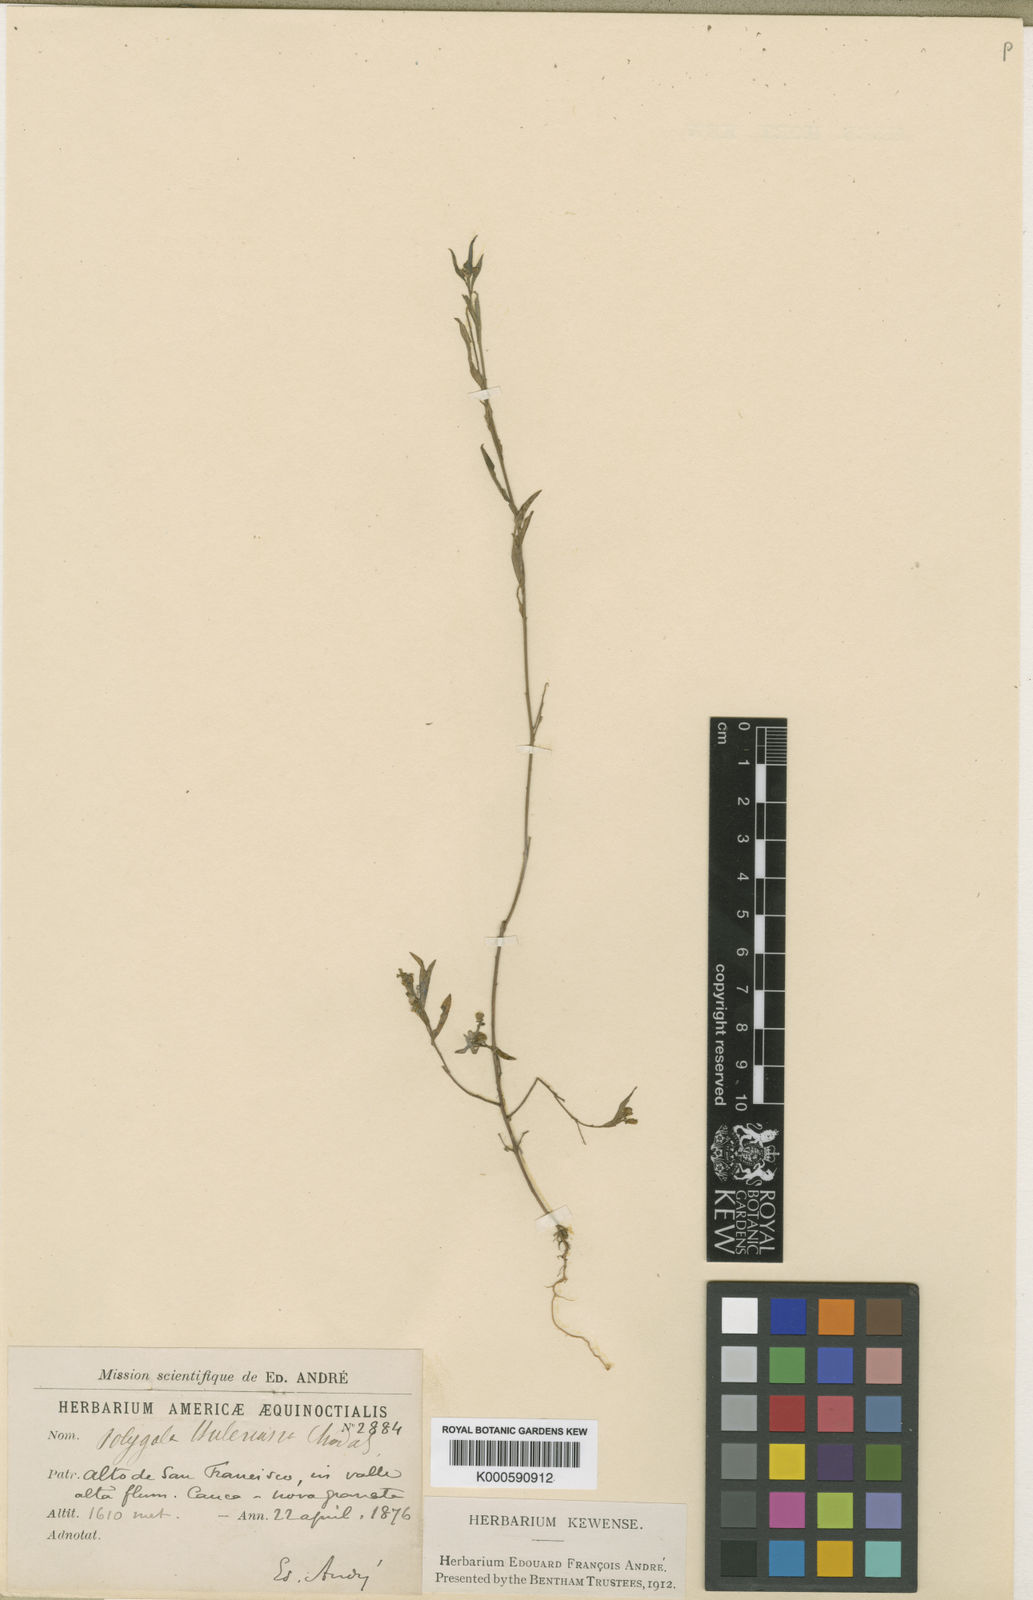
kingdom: Plantae
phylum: Tracheophyta
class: Magnoliopsida
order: Fabales
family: Polygalaceae
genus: Asemeia
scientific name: Asemeia violacea
